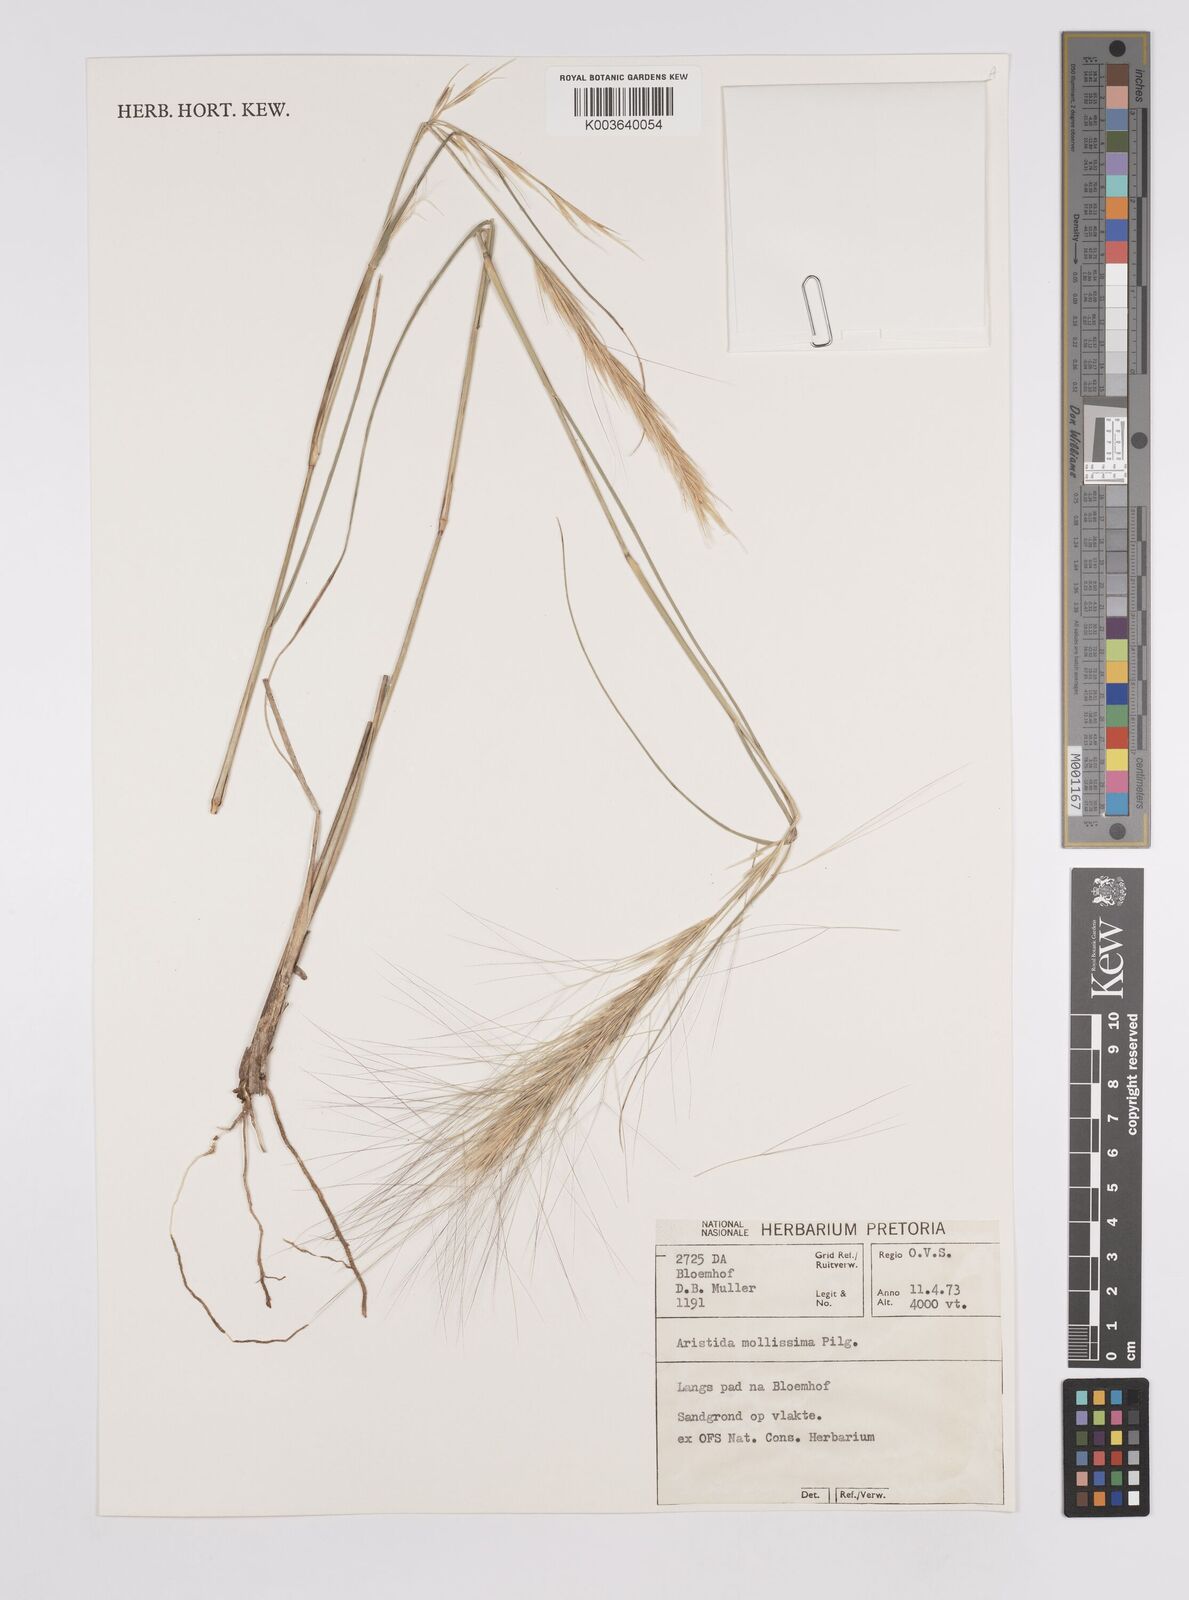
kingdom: Plantae
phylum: Tracheophyta
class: Liliopsida
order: Poales
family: Poaceae
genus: Aristida
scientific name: Aristida mollissima
